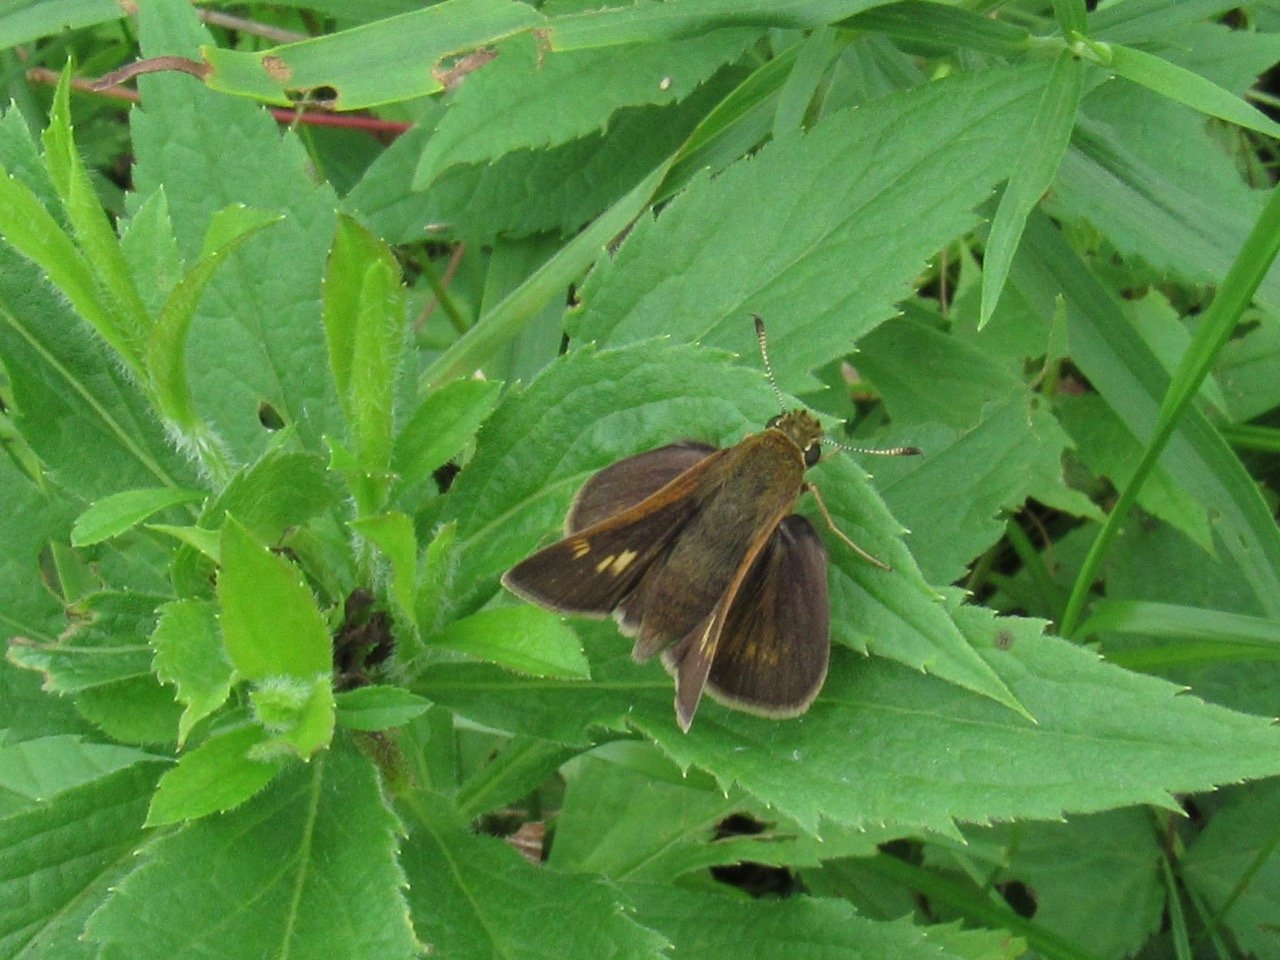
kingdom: Animalia
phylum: Arthropoda
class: Insecta
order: Lepidoptera
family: Hesperiidae
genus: Polites
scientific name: Polites egeremet
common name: Northern Broken-Dash
